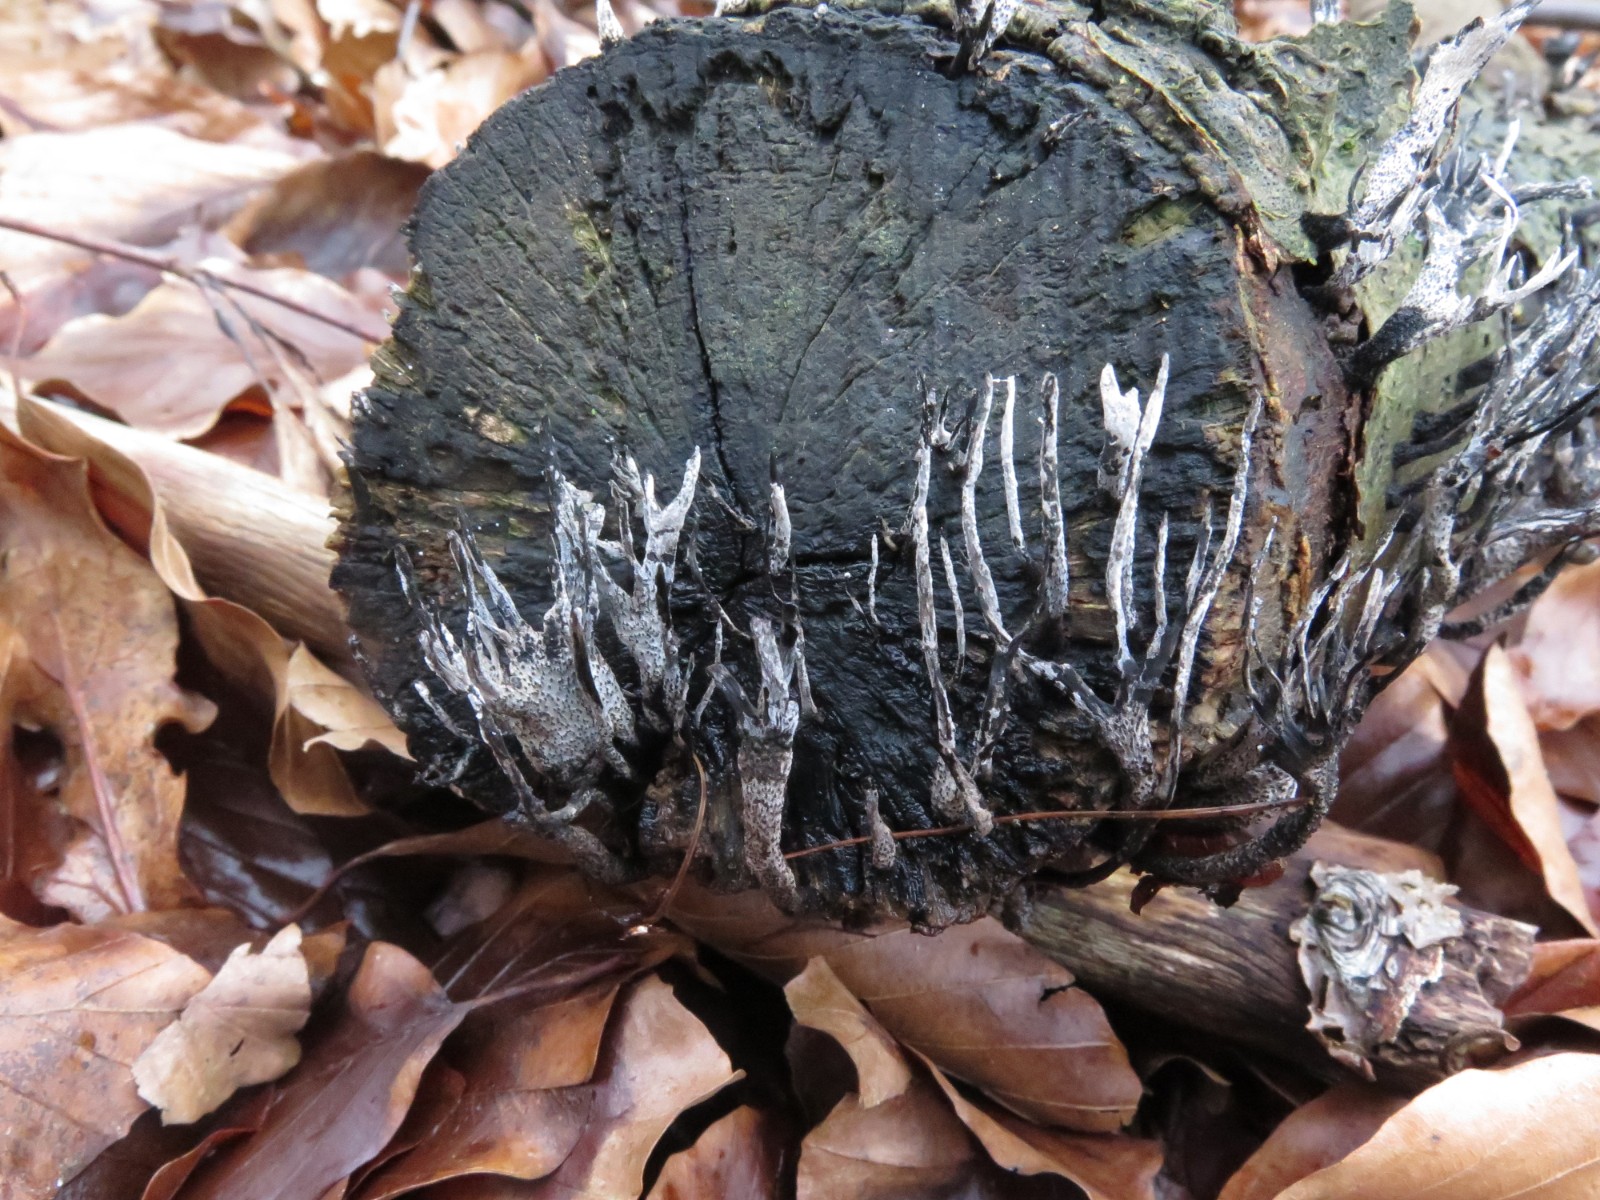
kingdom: Fungi
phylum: Ascomycota
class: Sordariomycetes
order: Xylariales
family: Xylariaceae
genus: Xylaria
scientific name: Xylaria hypoxylon
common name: grenet stødsvamp
